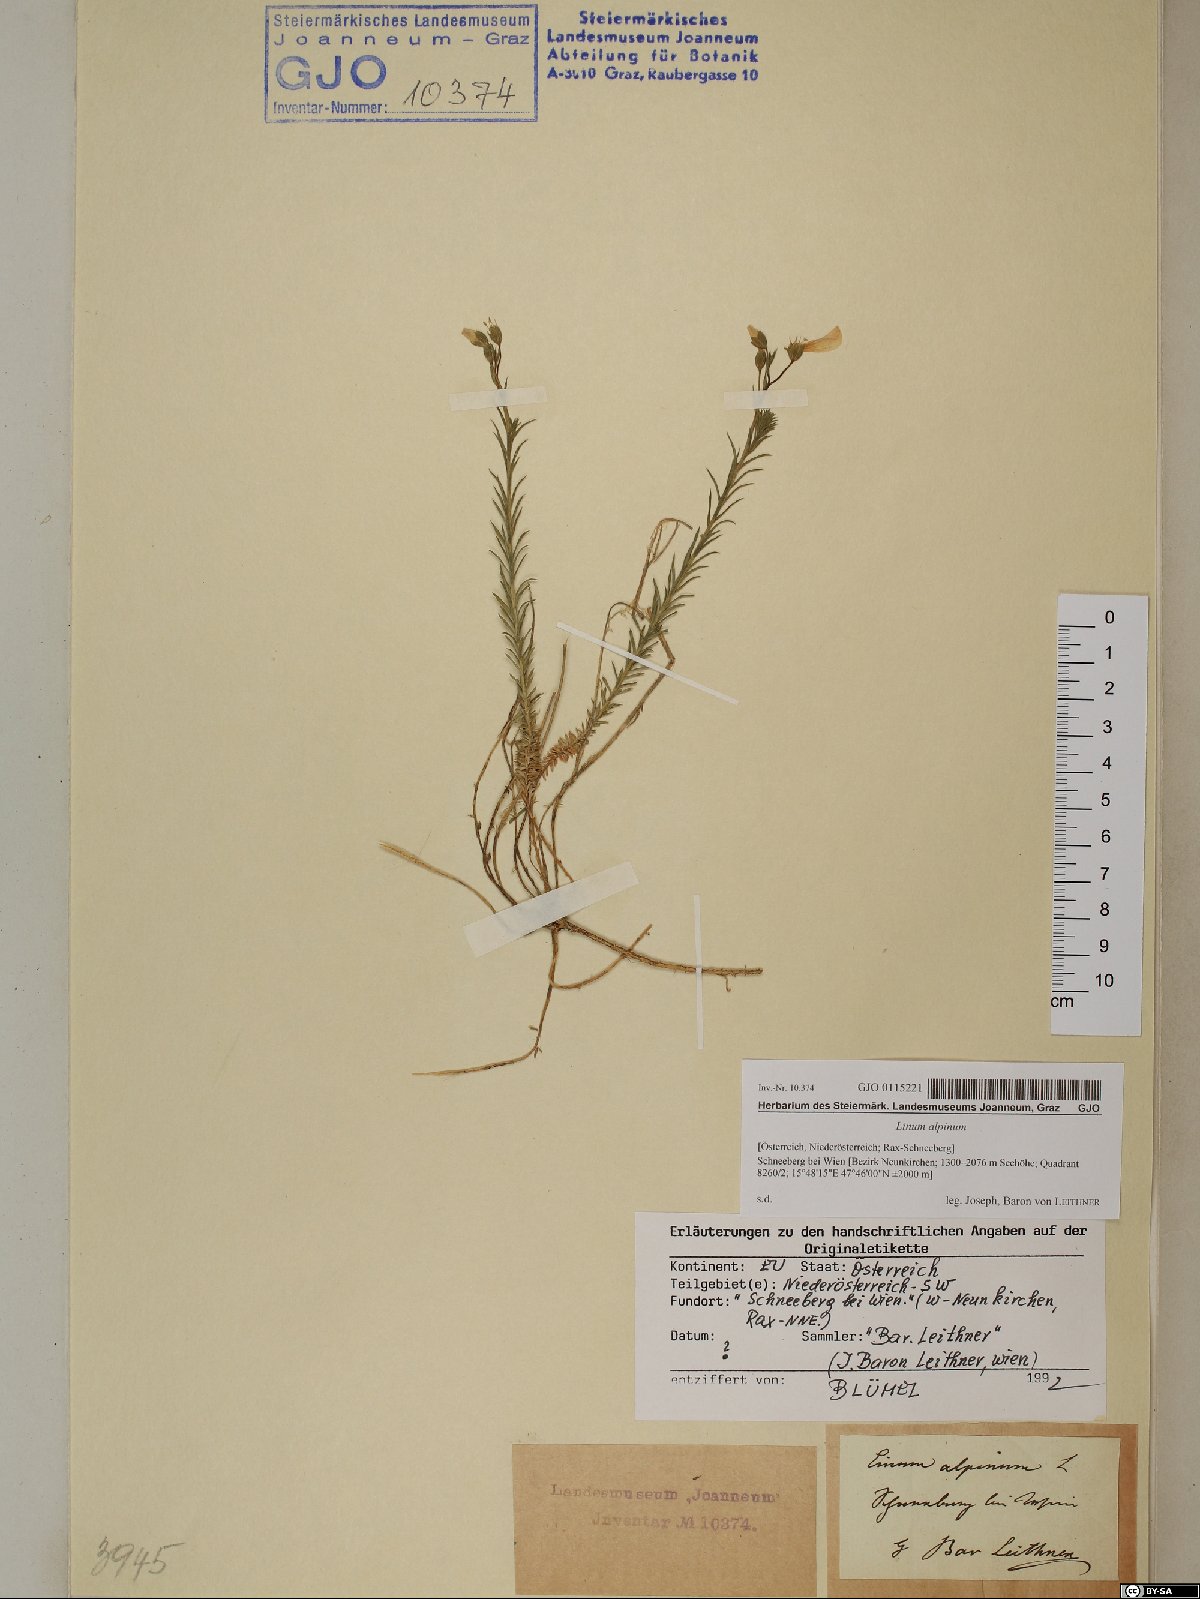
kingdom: Plantae
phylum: Tracheophyta
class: Magnoliopsida
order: Malpighiales
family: Linaceae
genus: Linum
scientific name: Linum alpinum
